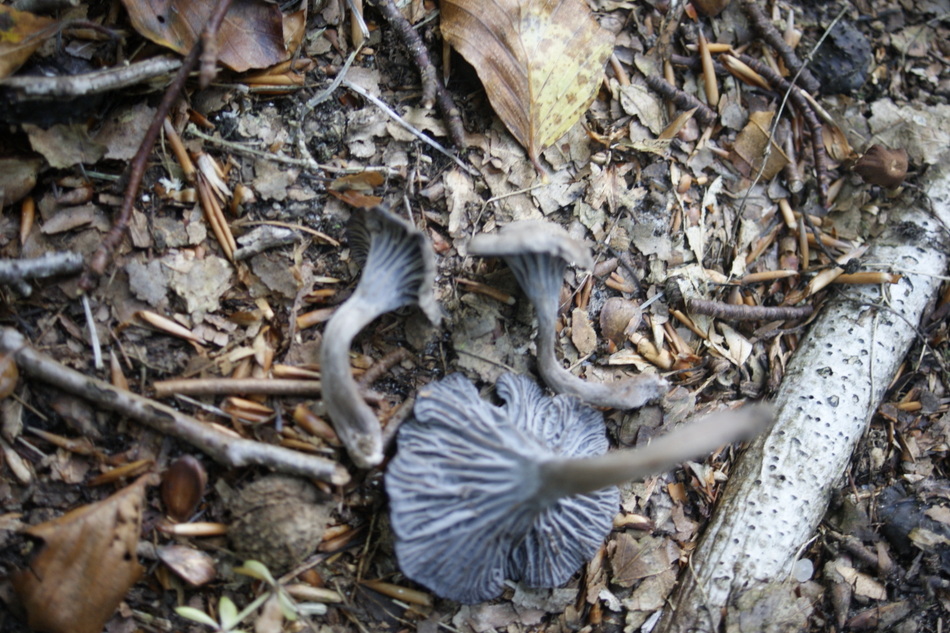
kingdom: Fungi
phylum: Basidiomycota
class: Agaricomycetes
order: Cantharellales
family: Hydnaceae
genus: Cantharellus
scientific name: Cantharellus cinereus
